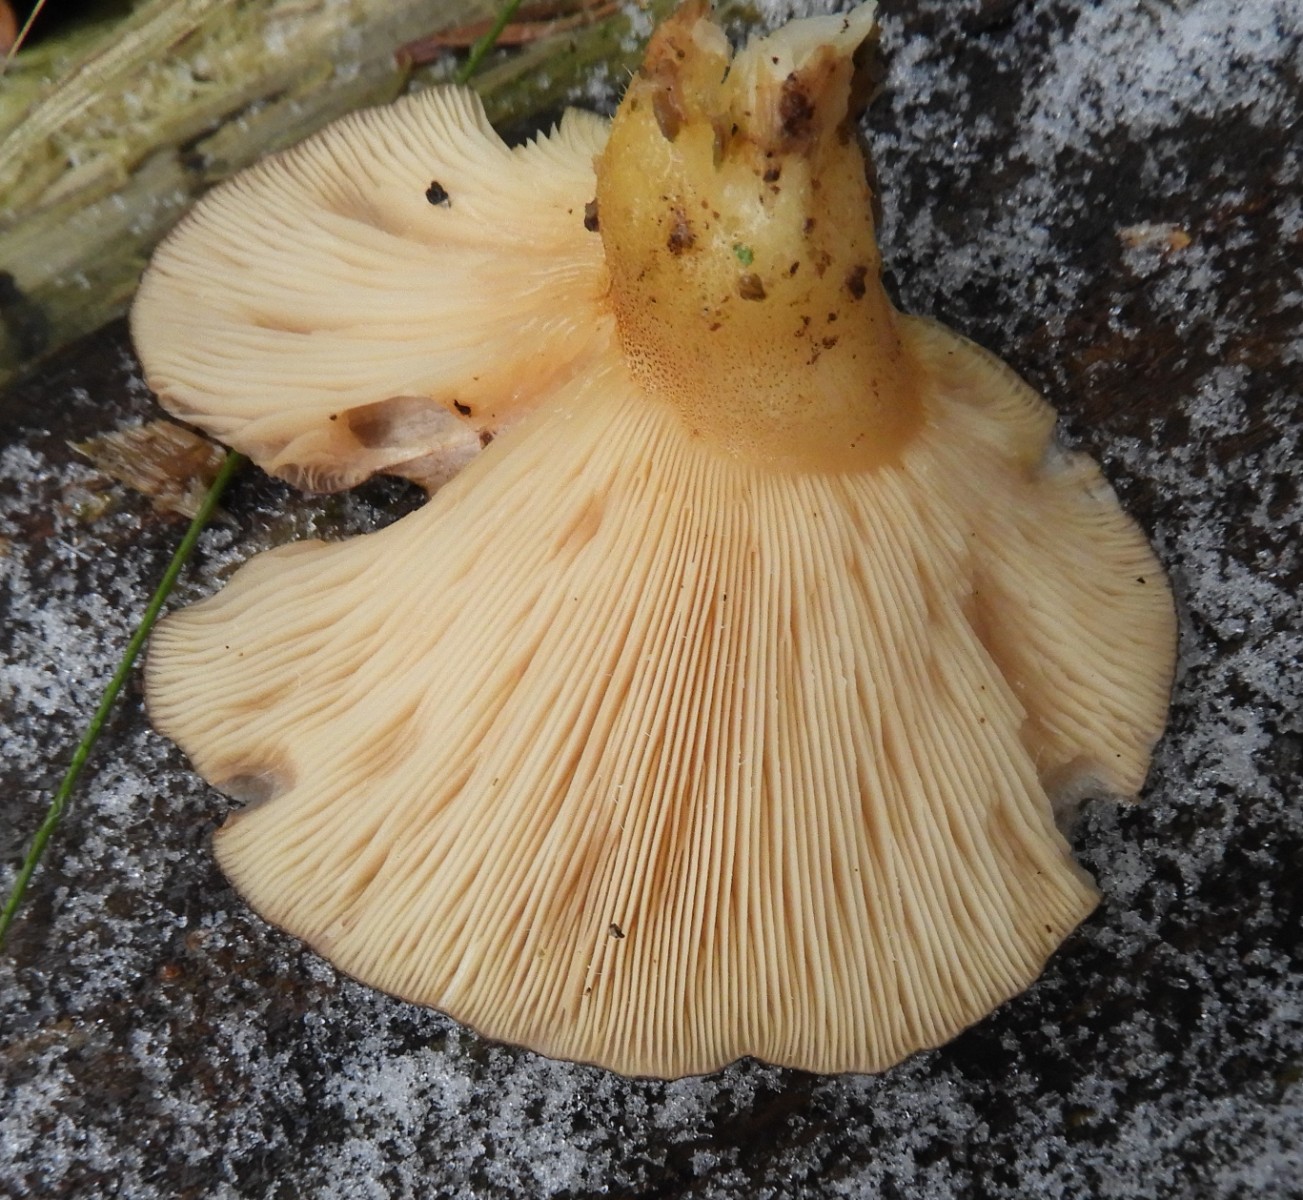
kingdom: Fungi
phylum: Basidiomycota
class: Agaricomycetes
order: Agaricales
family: Sarcomyxaceae
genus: Sarcomyxa
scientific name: Sarcomyxa serotina
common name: gummihat
